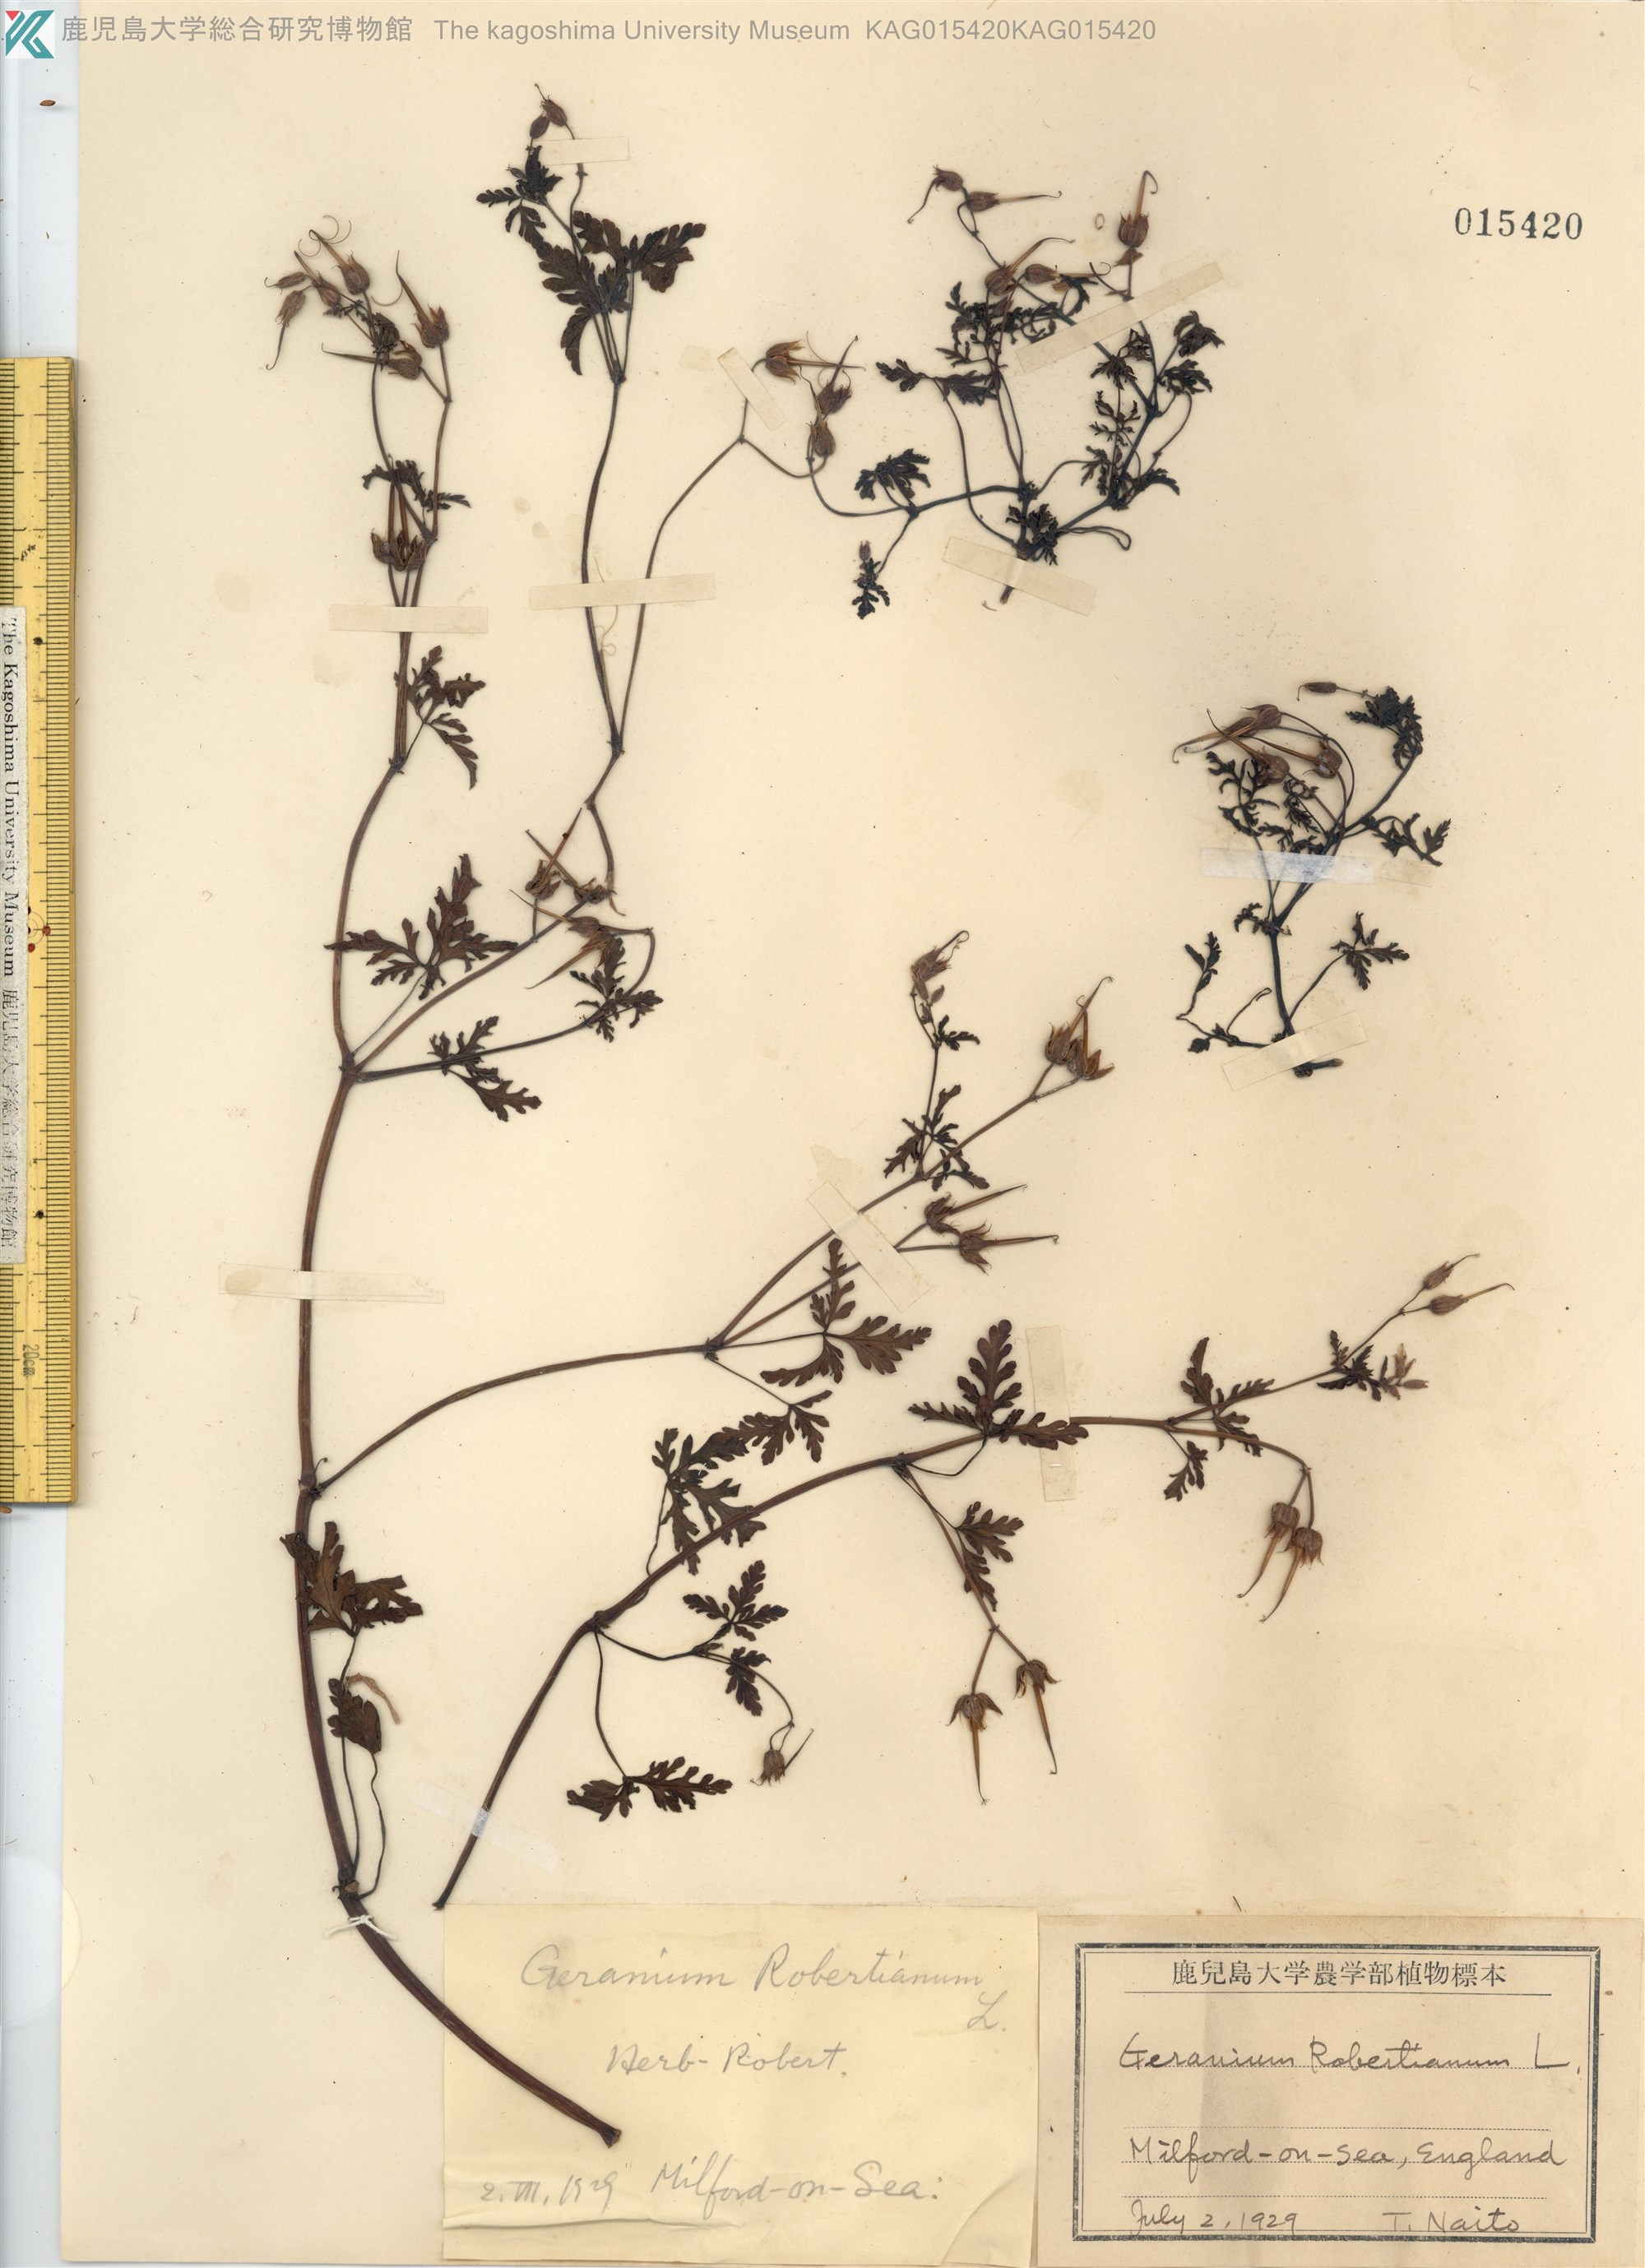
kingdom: Plantae
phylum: Tracheophyta
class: Magnoliopsida
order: Geraniales
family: Geraniaceae
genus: Geranium
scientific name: Geranium robertianum
